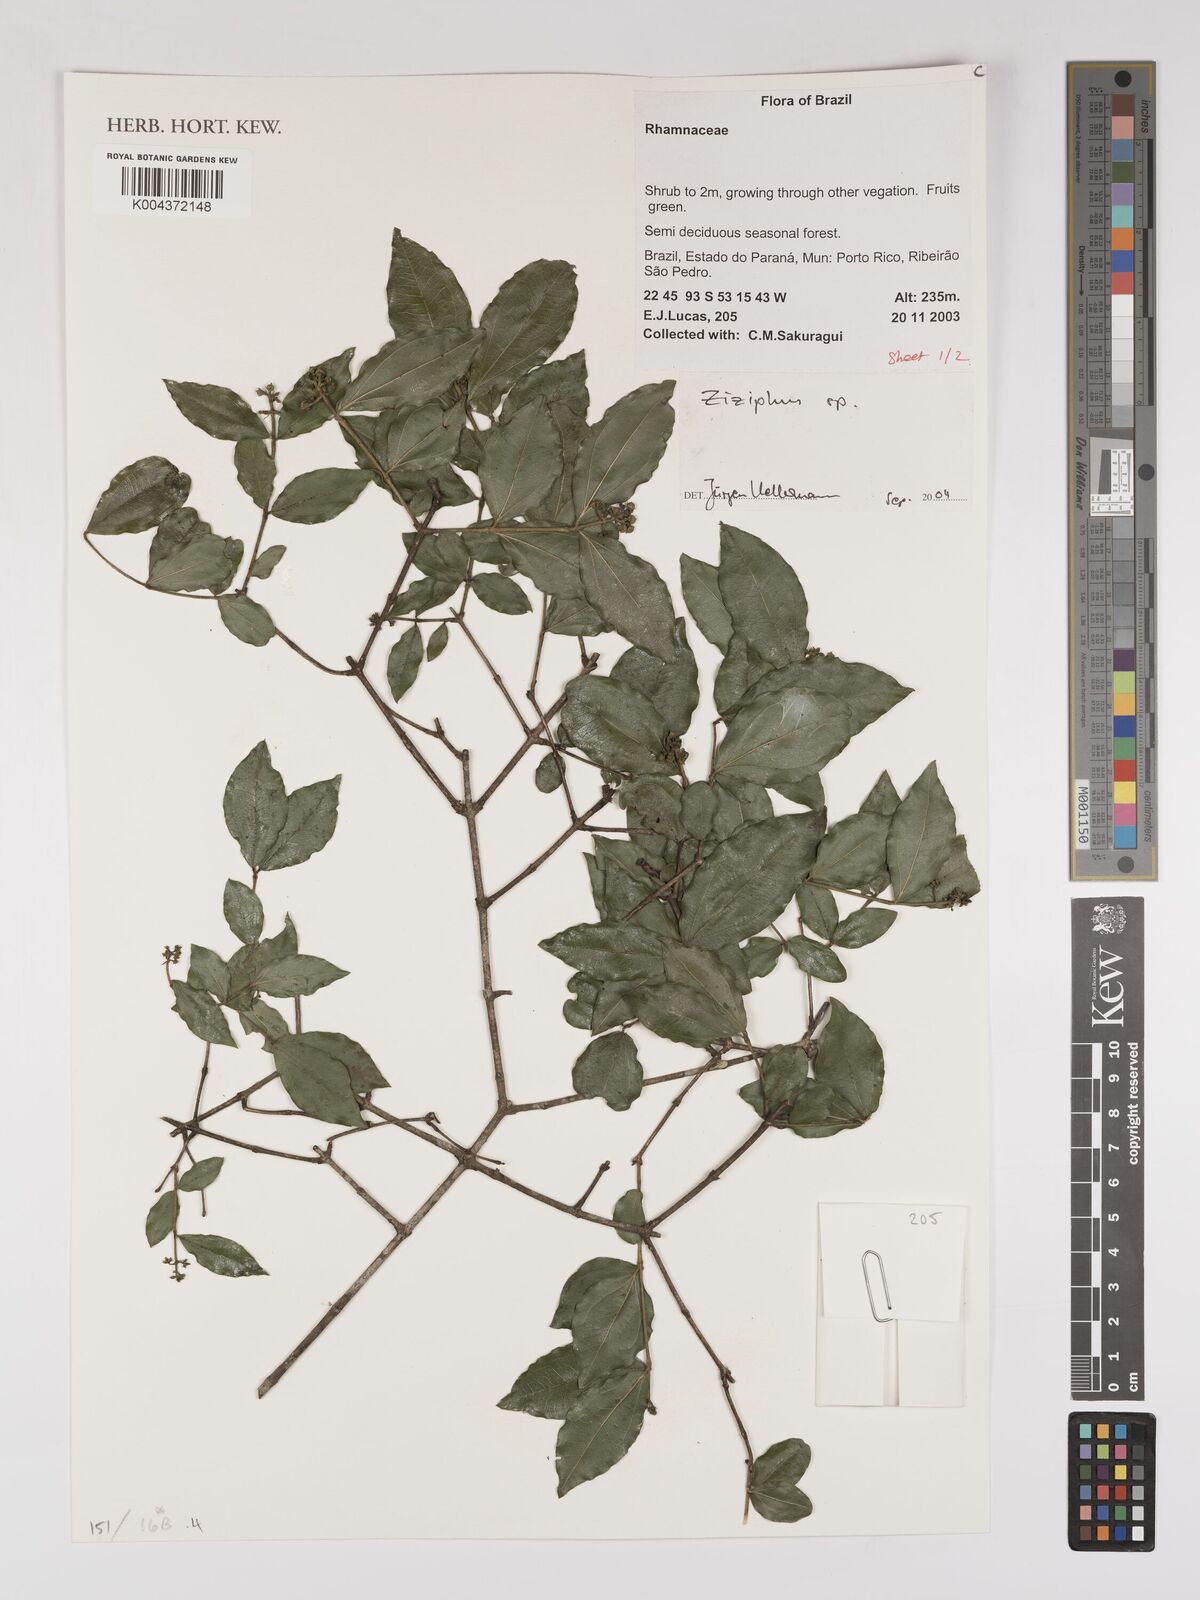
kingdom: Plantae
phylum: Tracheophyta
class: Magnoliopsida
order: Rosales
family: Rhamnaceae
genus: Ziziphus
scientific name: Ziziphus
